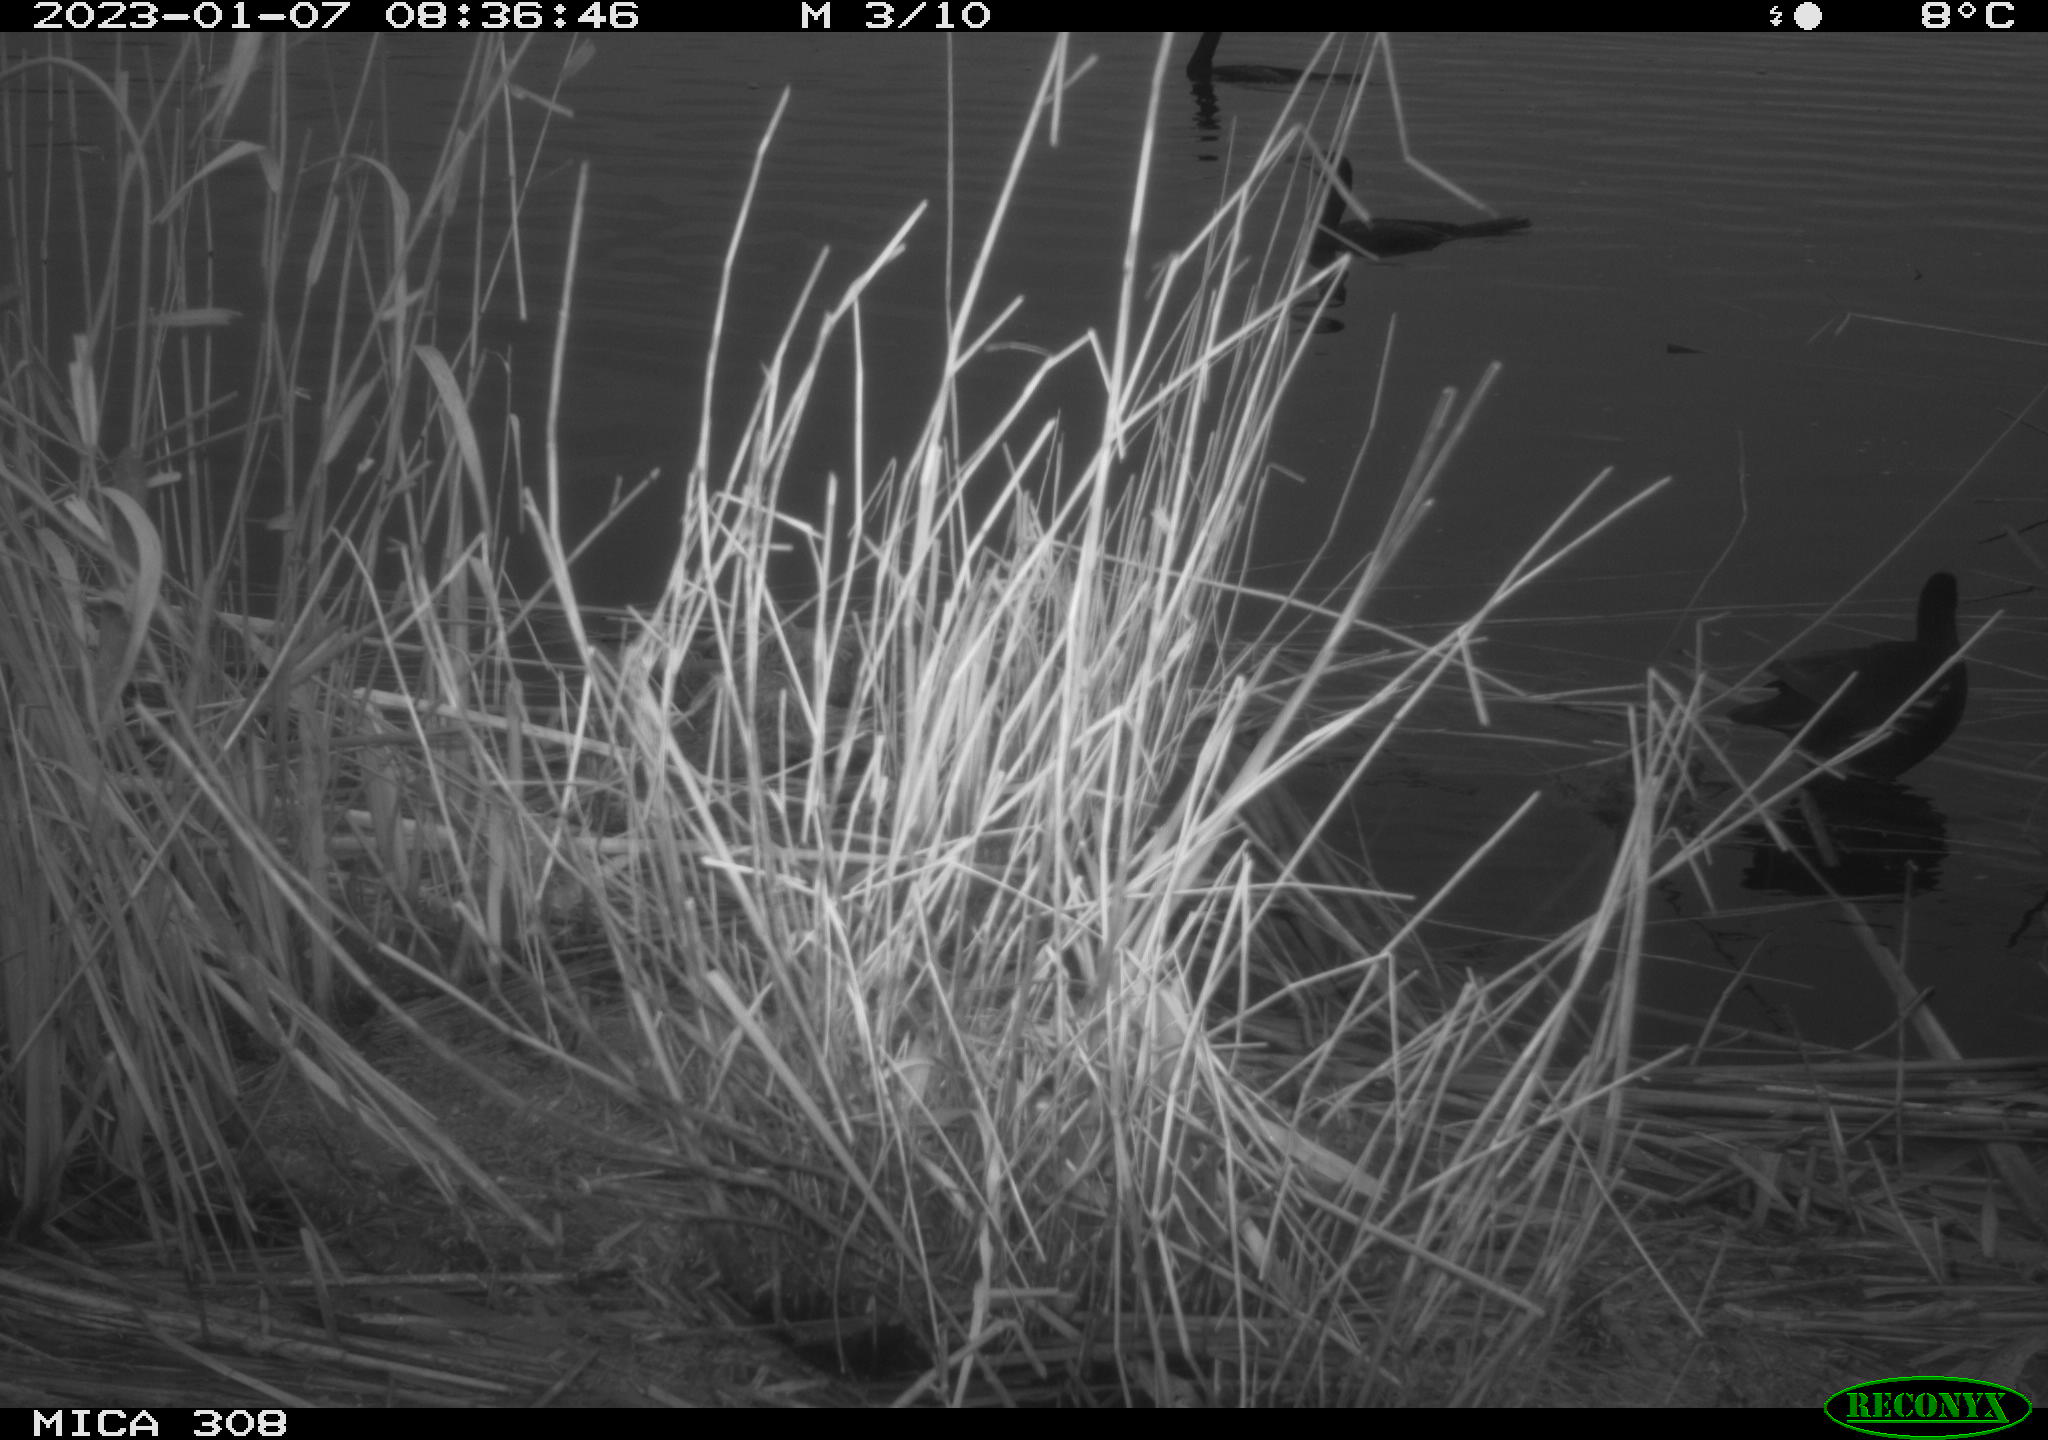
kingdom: Animalia
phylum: Chordata
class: Aves
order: Gruiformes
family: Rallidae
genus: Gallinula
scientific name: Gallinula chloropus
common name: Common moorhen
